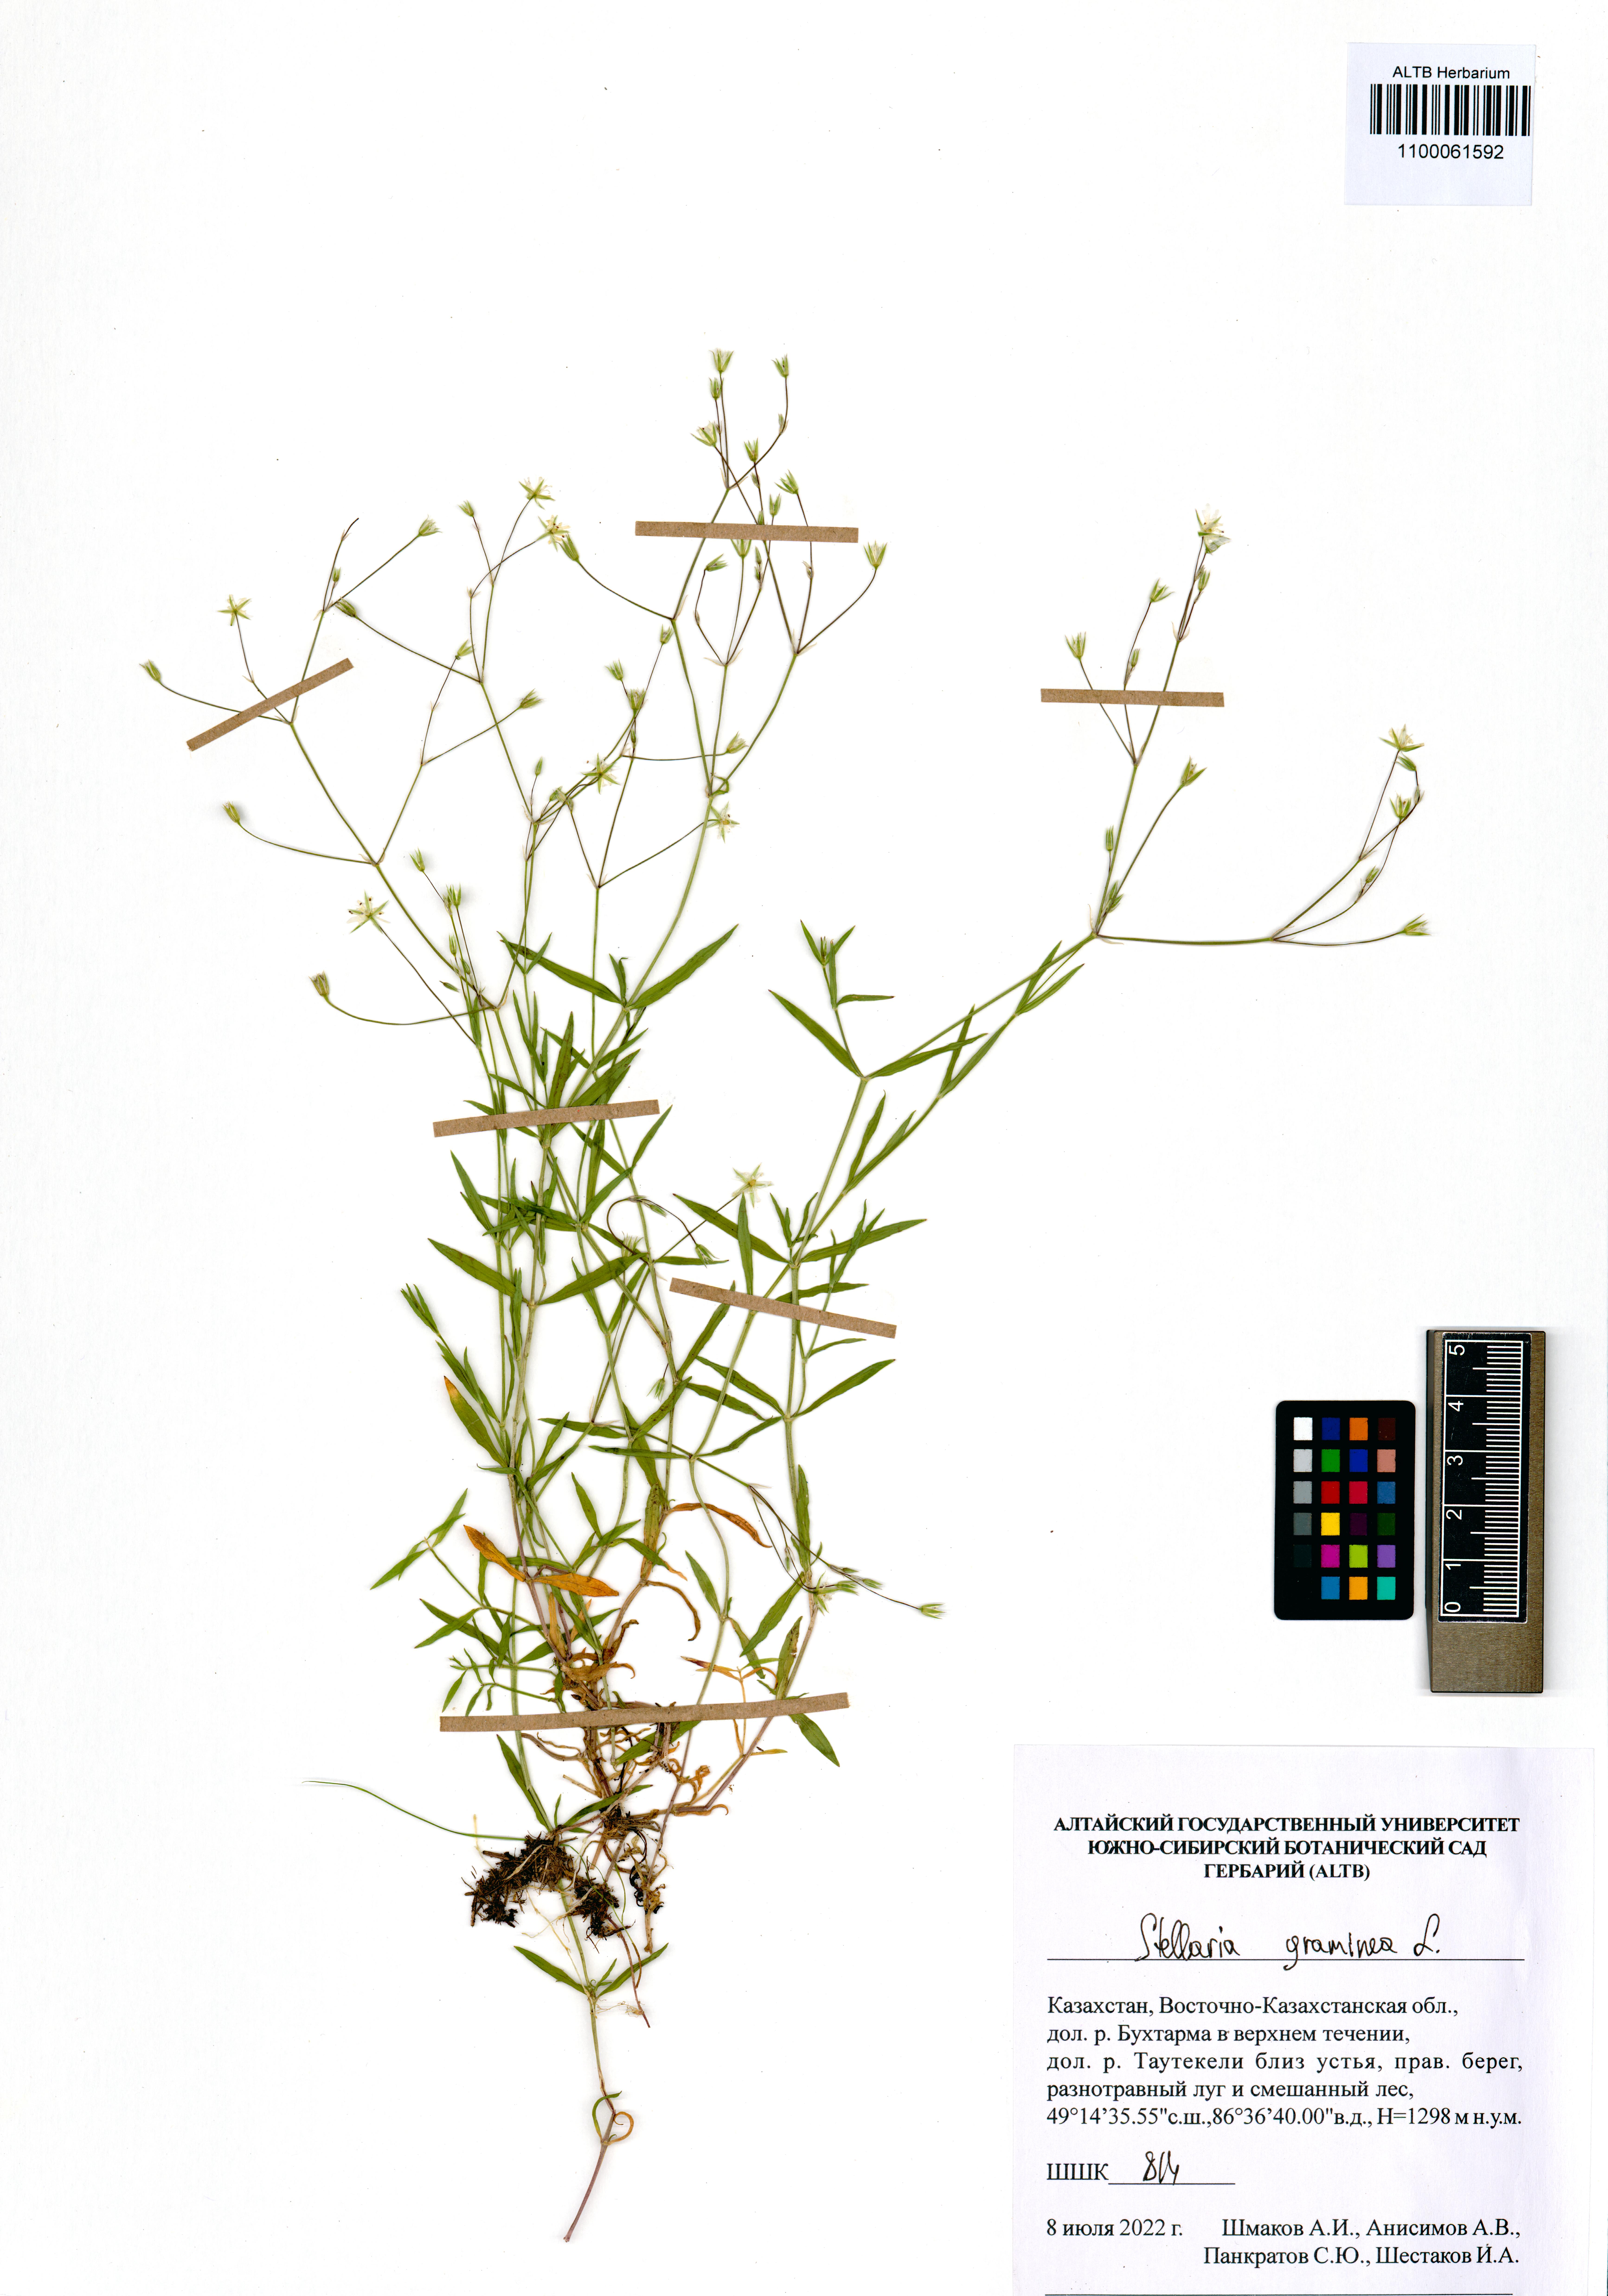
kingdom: Plantae
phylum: Tracheophyta
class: Magnoliopsida
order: Caryophyllales
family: Caryophyllaceae
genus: Stellaria
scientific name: Stellaria graminea
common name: Grass-like starwort
